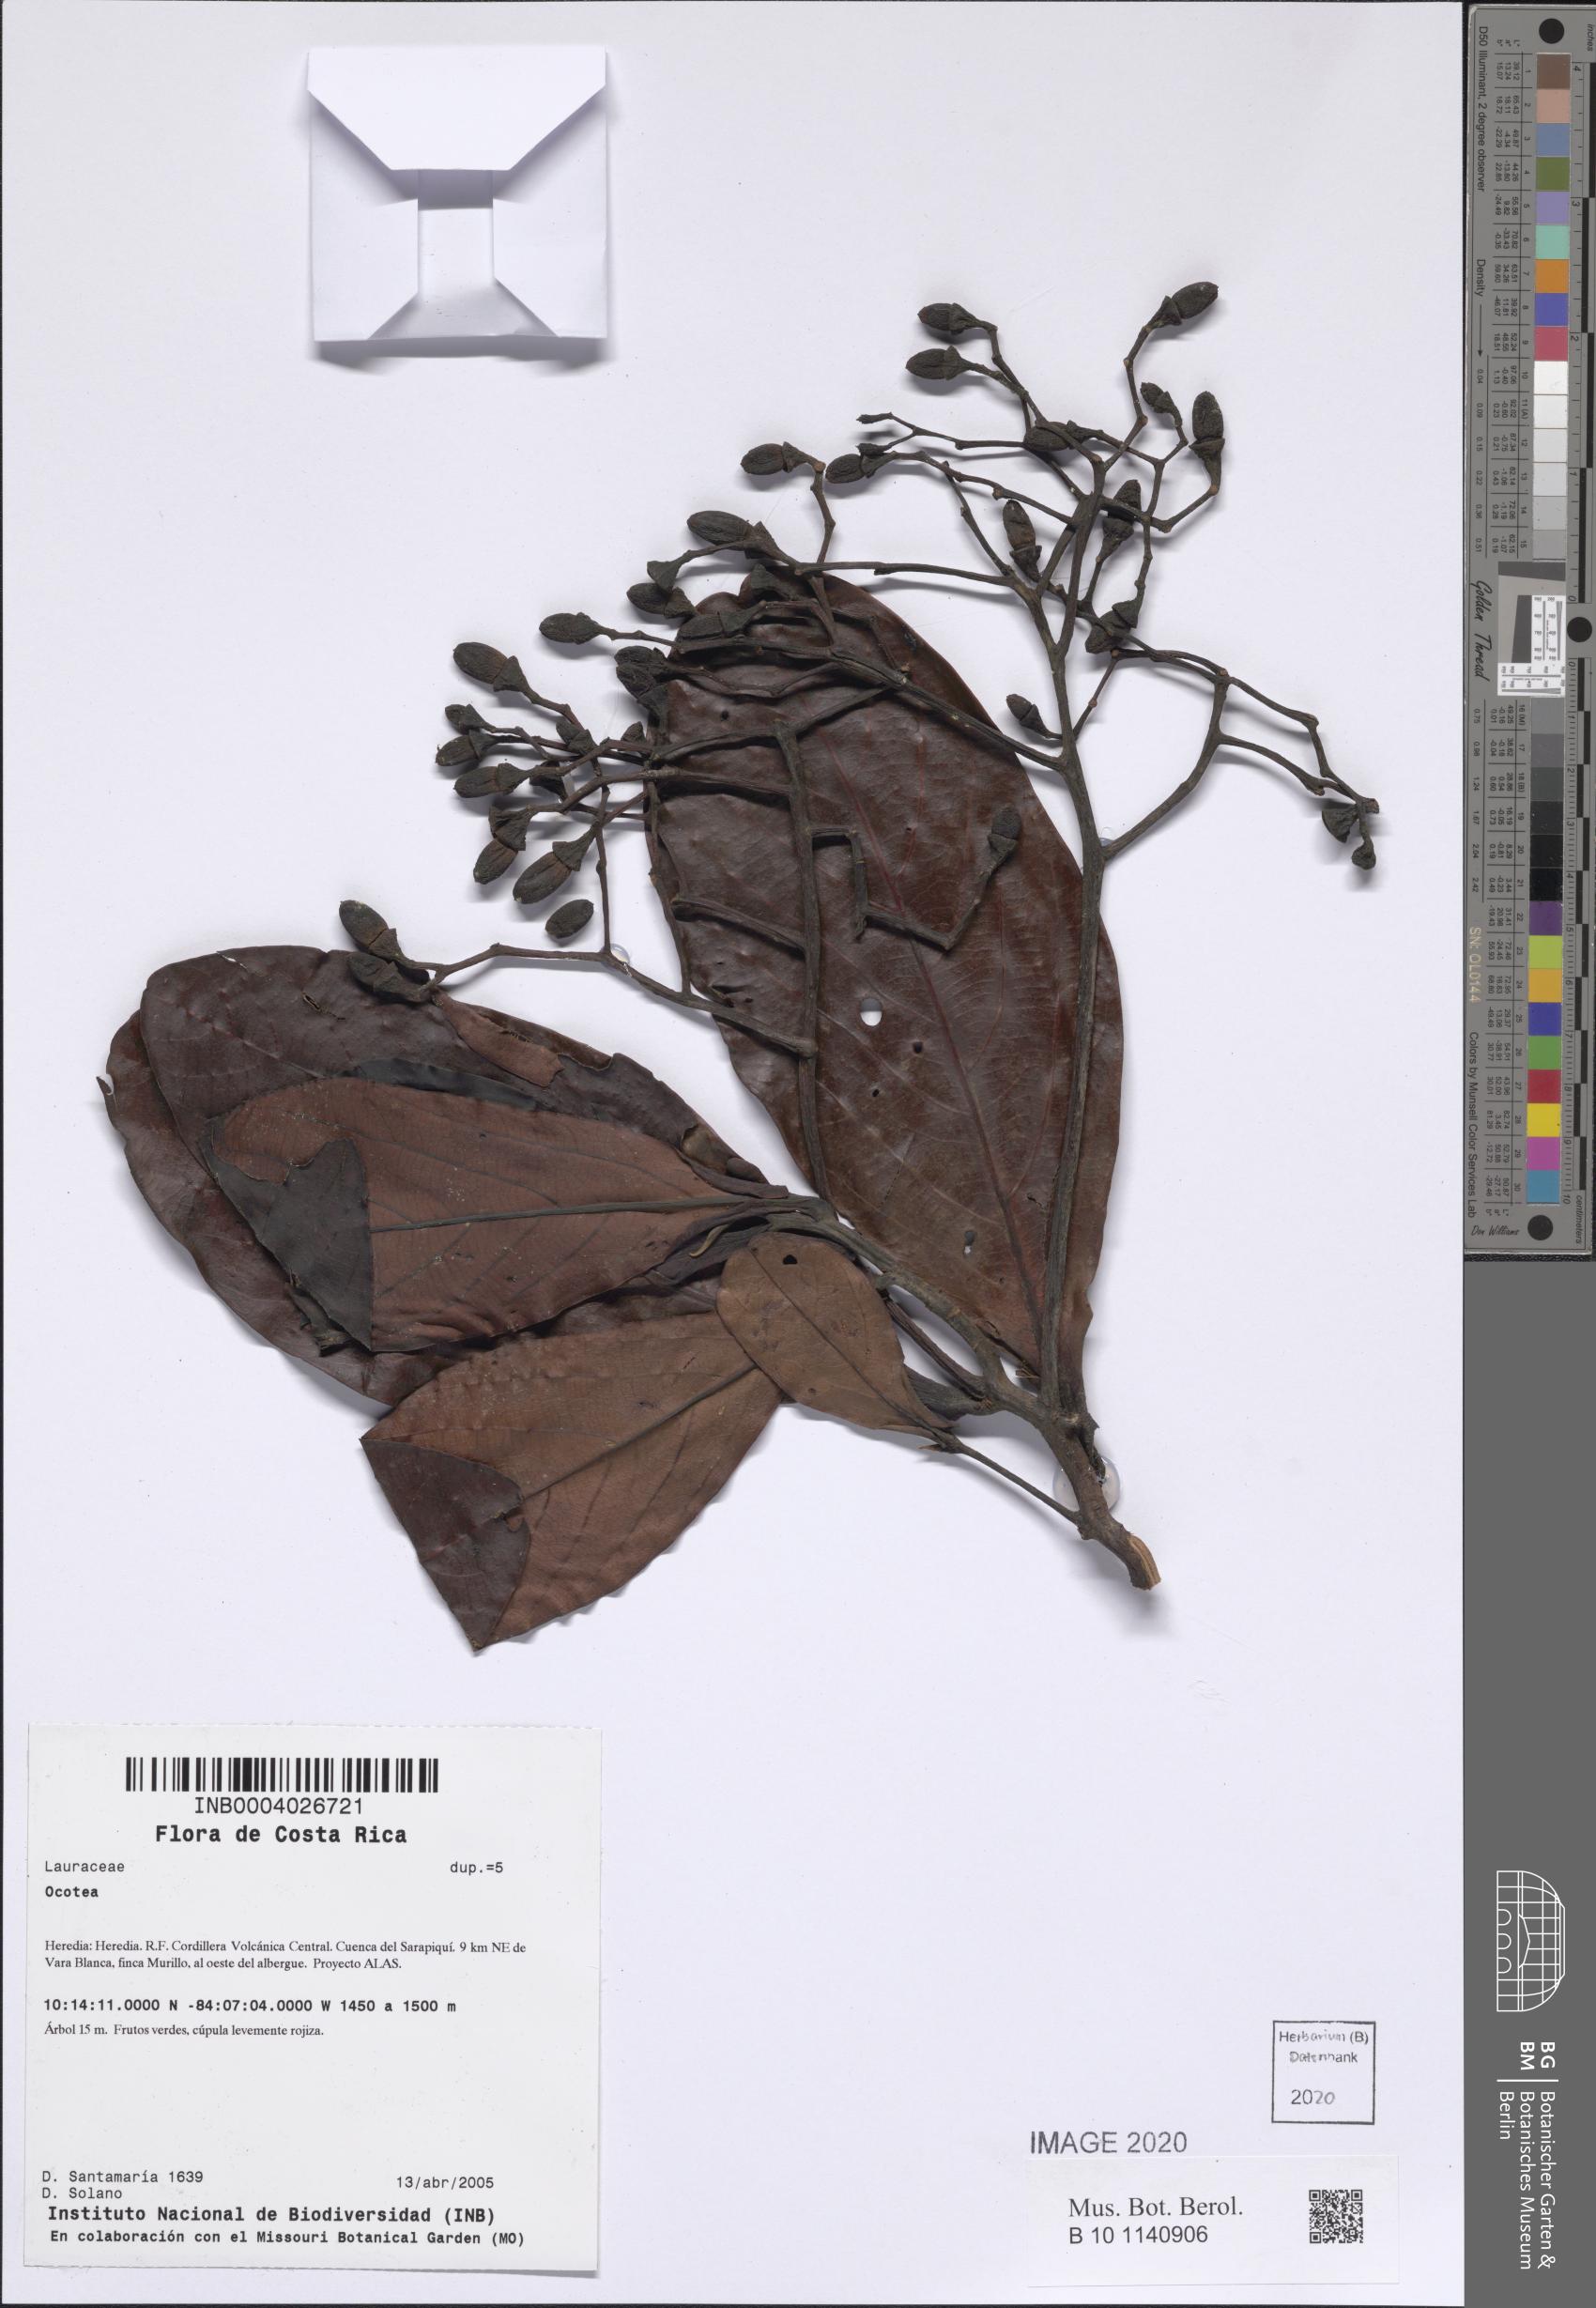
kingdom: Plantae
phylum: Tracheophyta
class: Magnoliopsida
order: Laurales
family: Lauraceae
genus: Ocotea
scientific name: Ocotea
